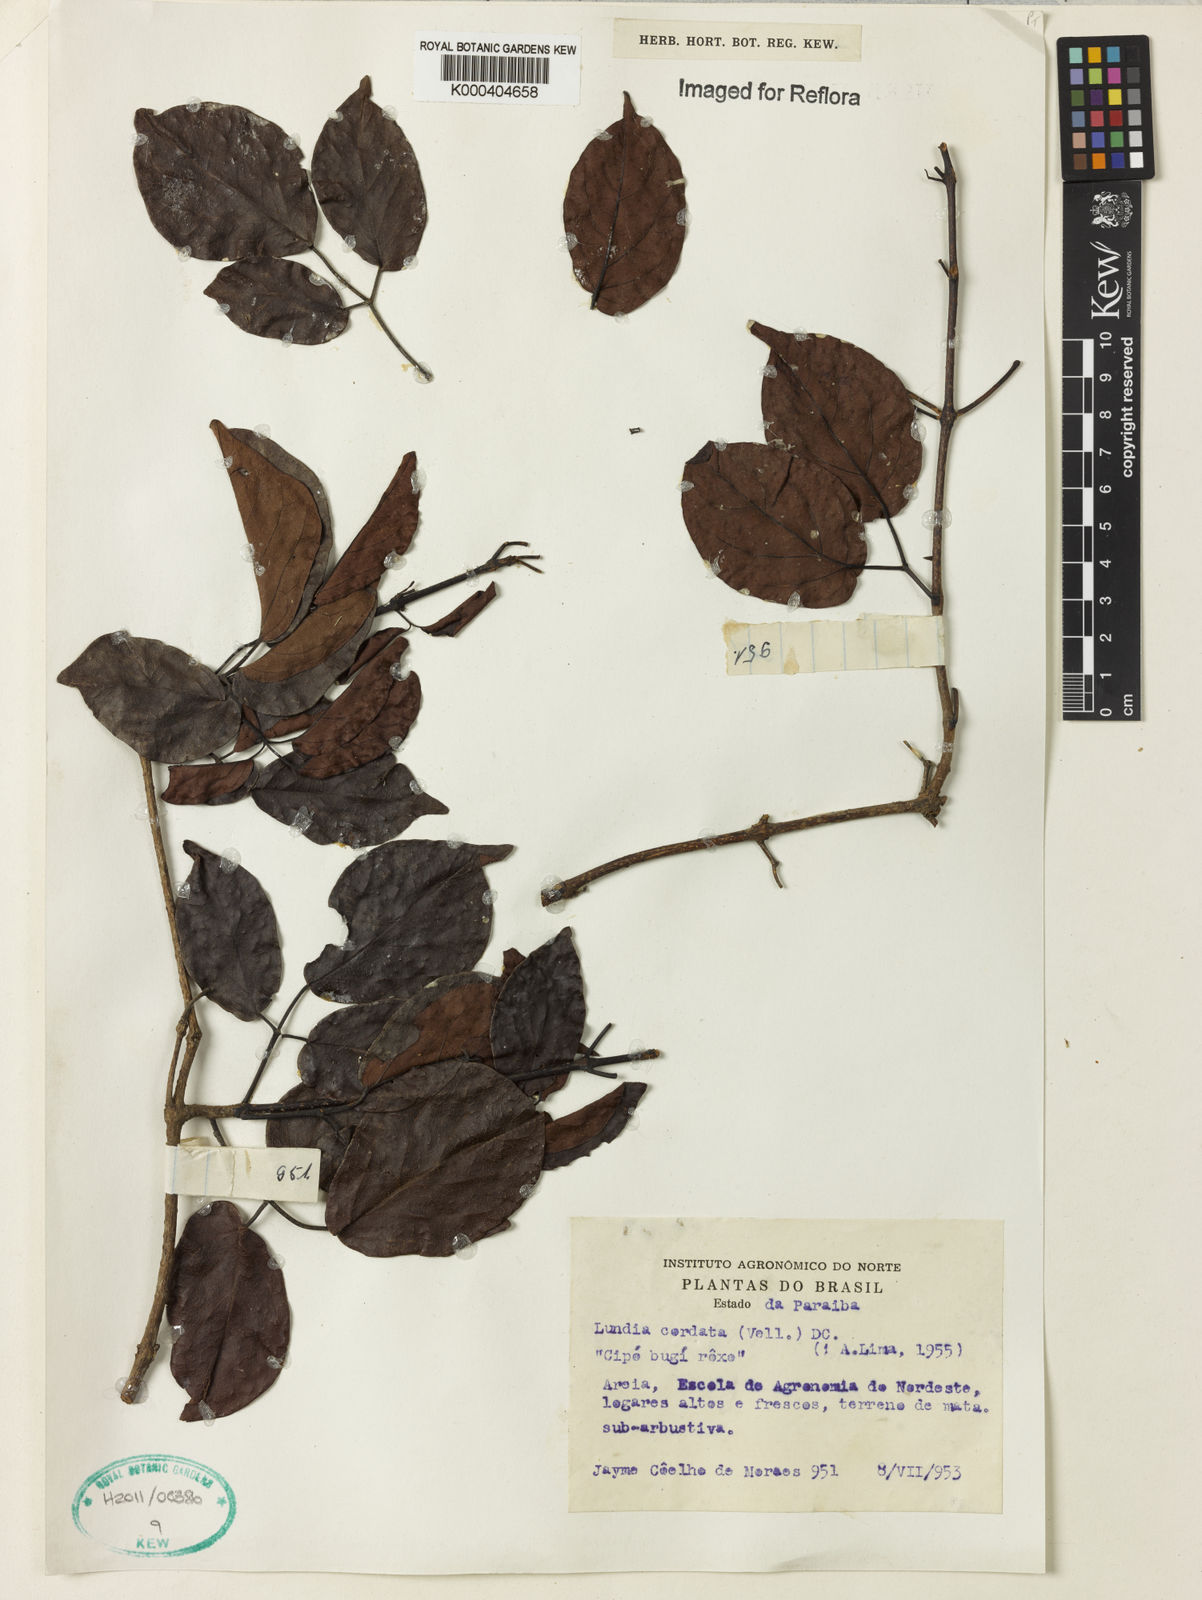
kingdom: Plantae
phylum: Tracheophyta
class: Magnoliopsida
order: Lamiales
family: Bignoniaceae
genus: Lundia
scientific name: Lundia corymbifera
